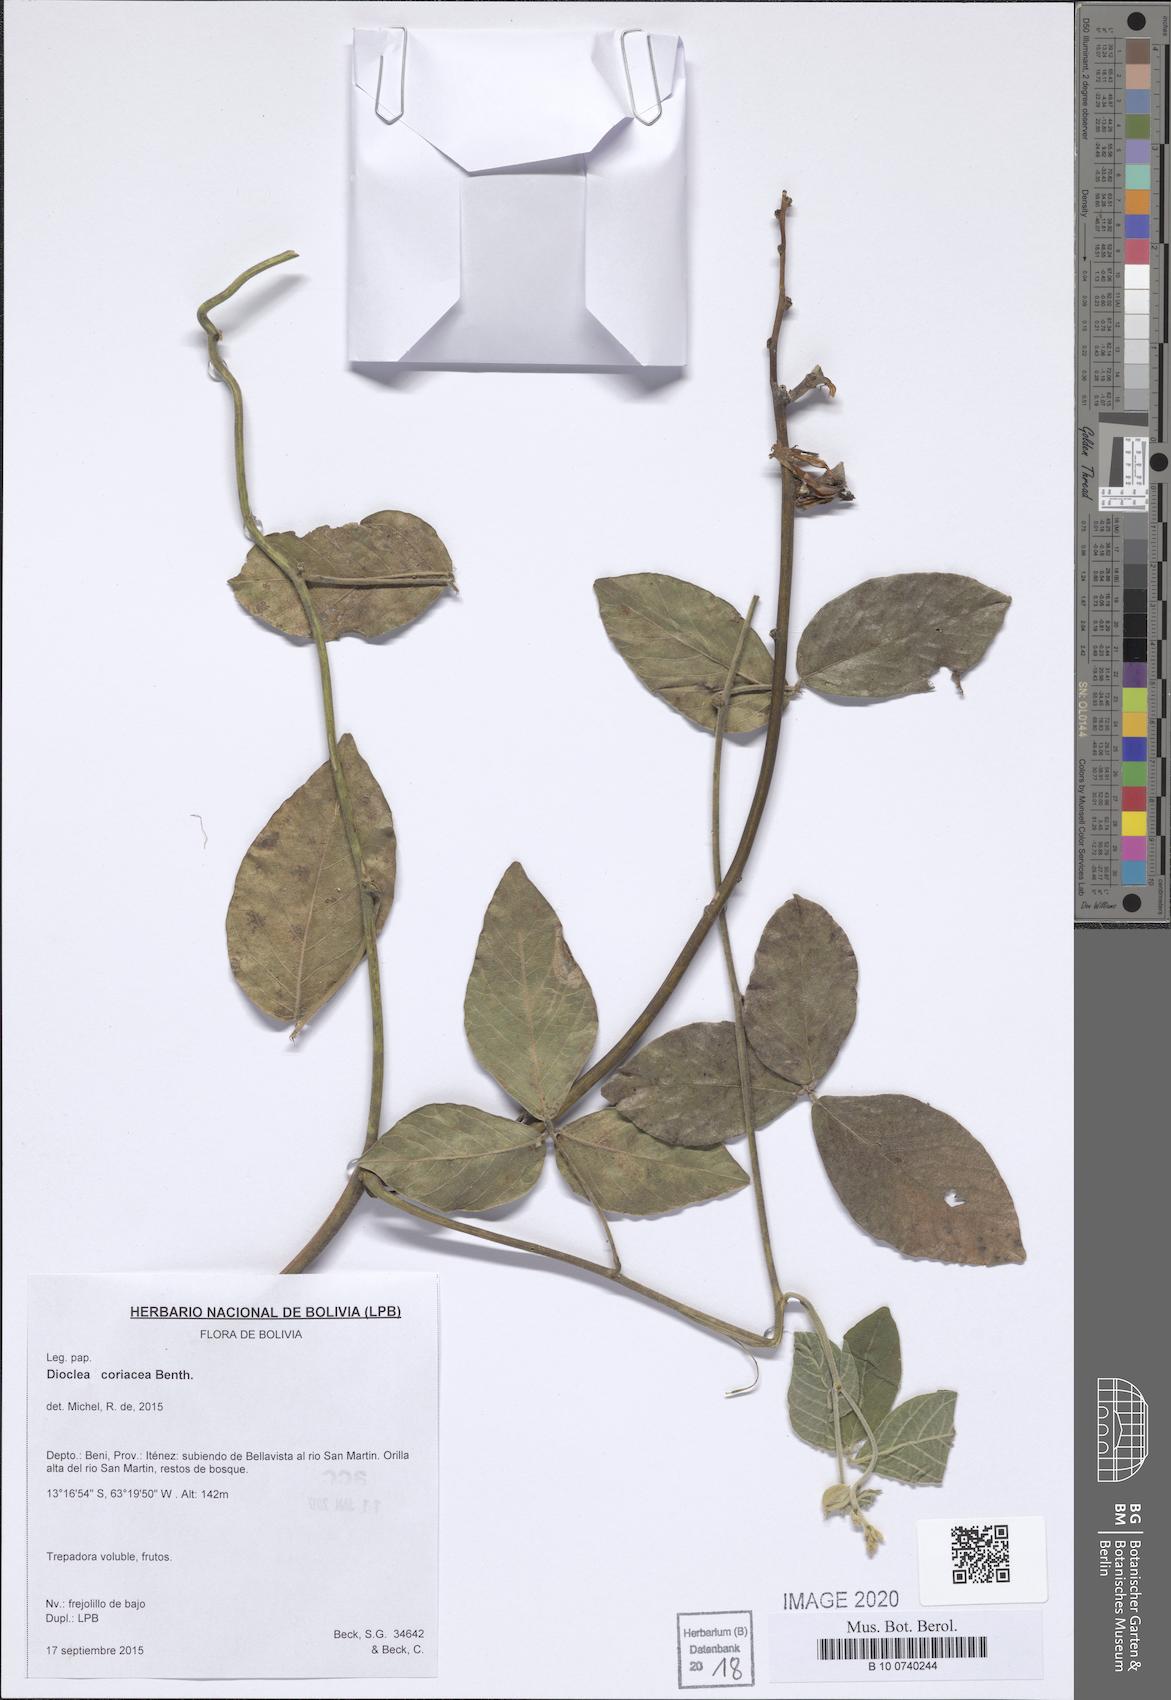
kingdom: Plantae
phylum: Tracheophyta
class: Magnoliopsida
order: Fabales
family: Fabaceae
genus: Macropsychanthus
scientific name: Macropsychanthus coriaceus
